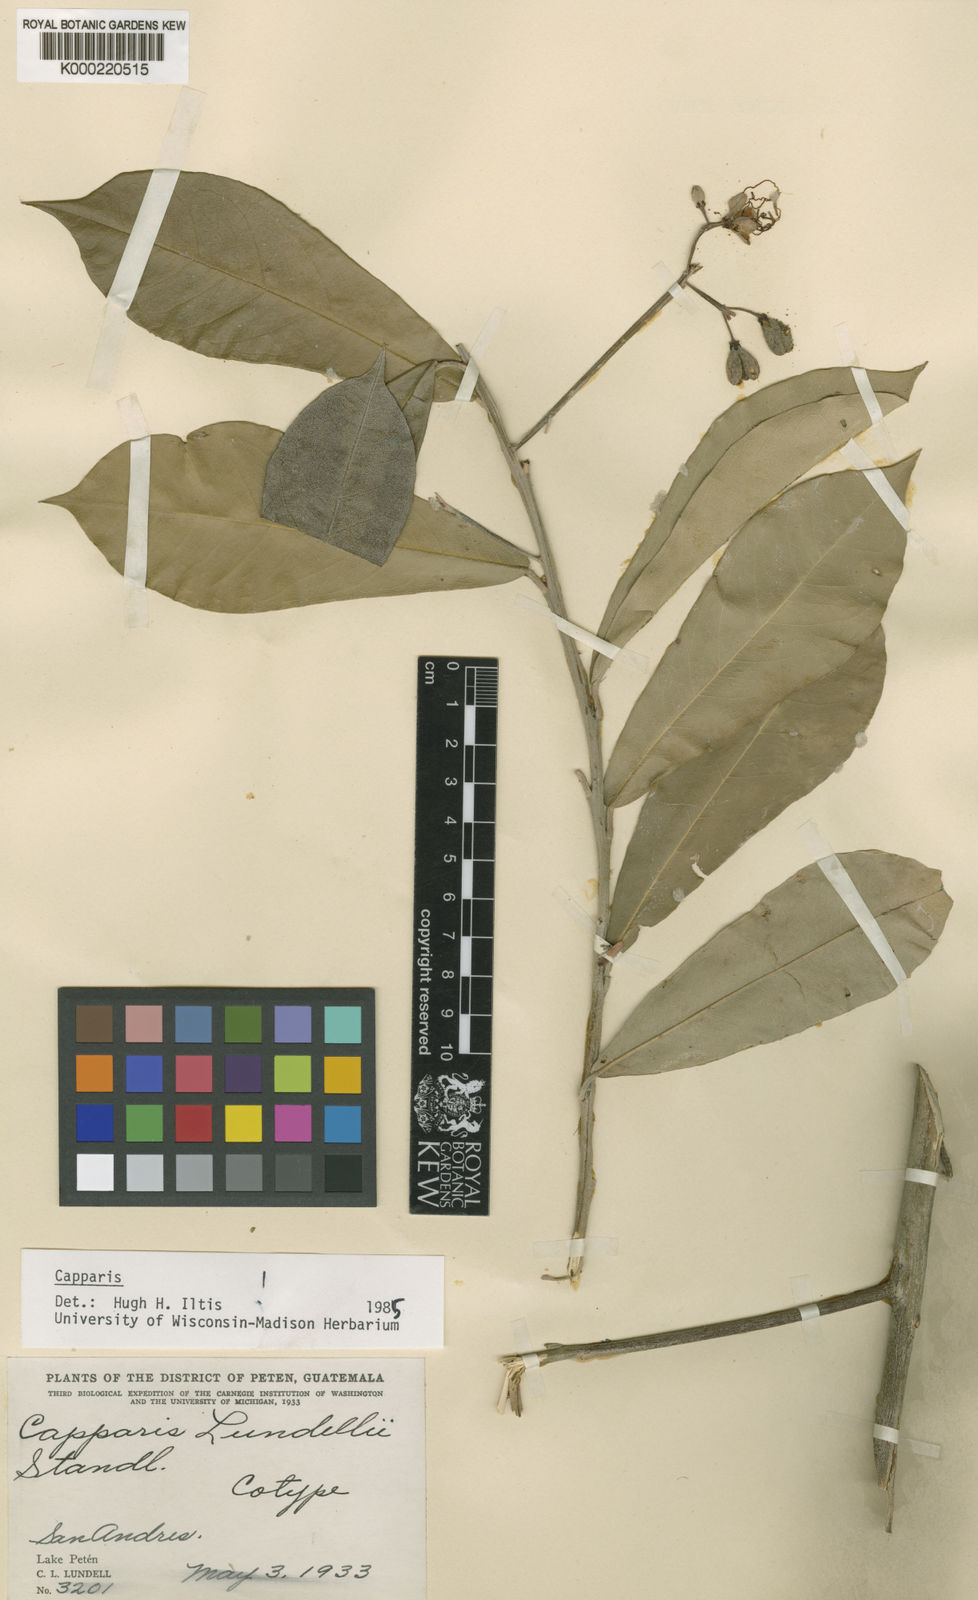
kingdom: Plantae
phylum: Tracheophyta
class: Magnoliopsida
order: Brassicales
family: Capparaceae
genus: Quadrella
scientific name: Quadrella lundellii
